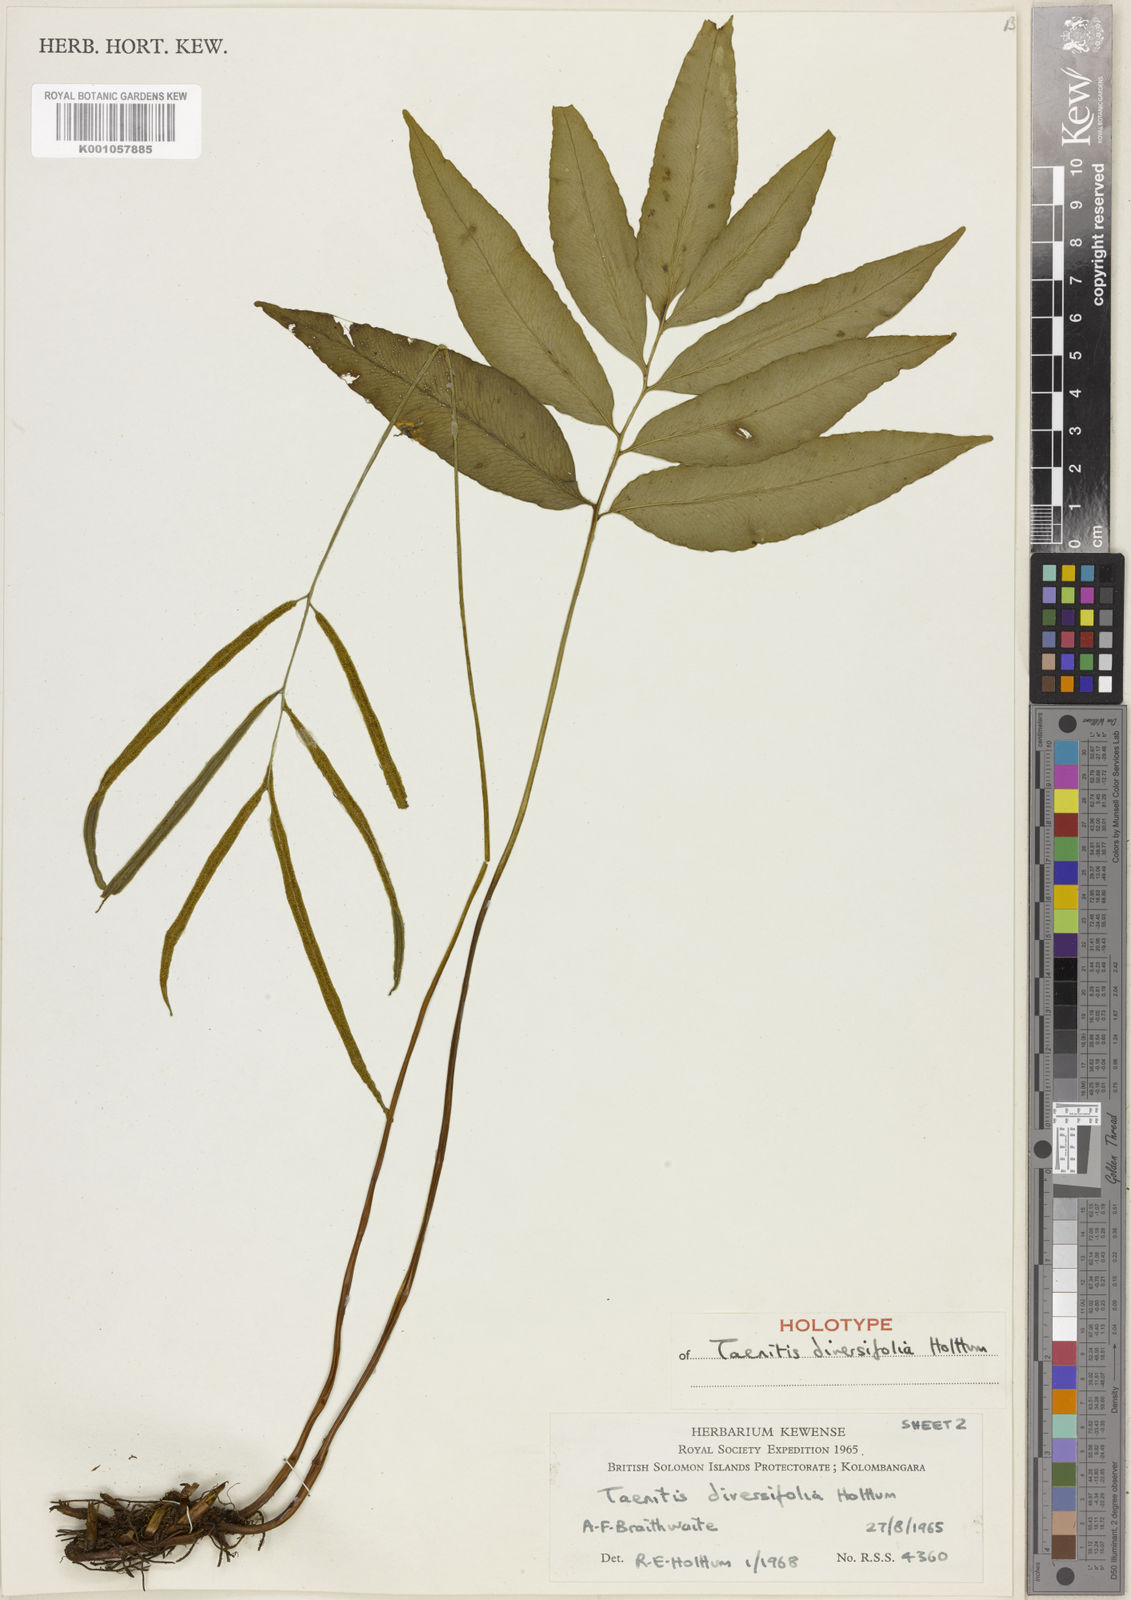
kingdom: Plantae
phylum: Tracheophyta
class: Polypodiopsida
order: Polypodiales
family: Pteridaceae
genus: Taenitis
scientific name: Taenitis diversifolia
